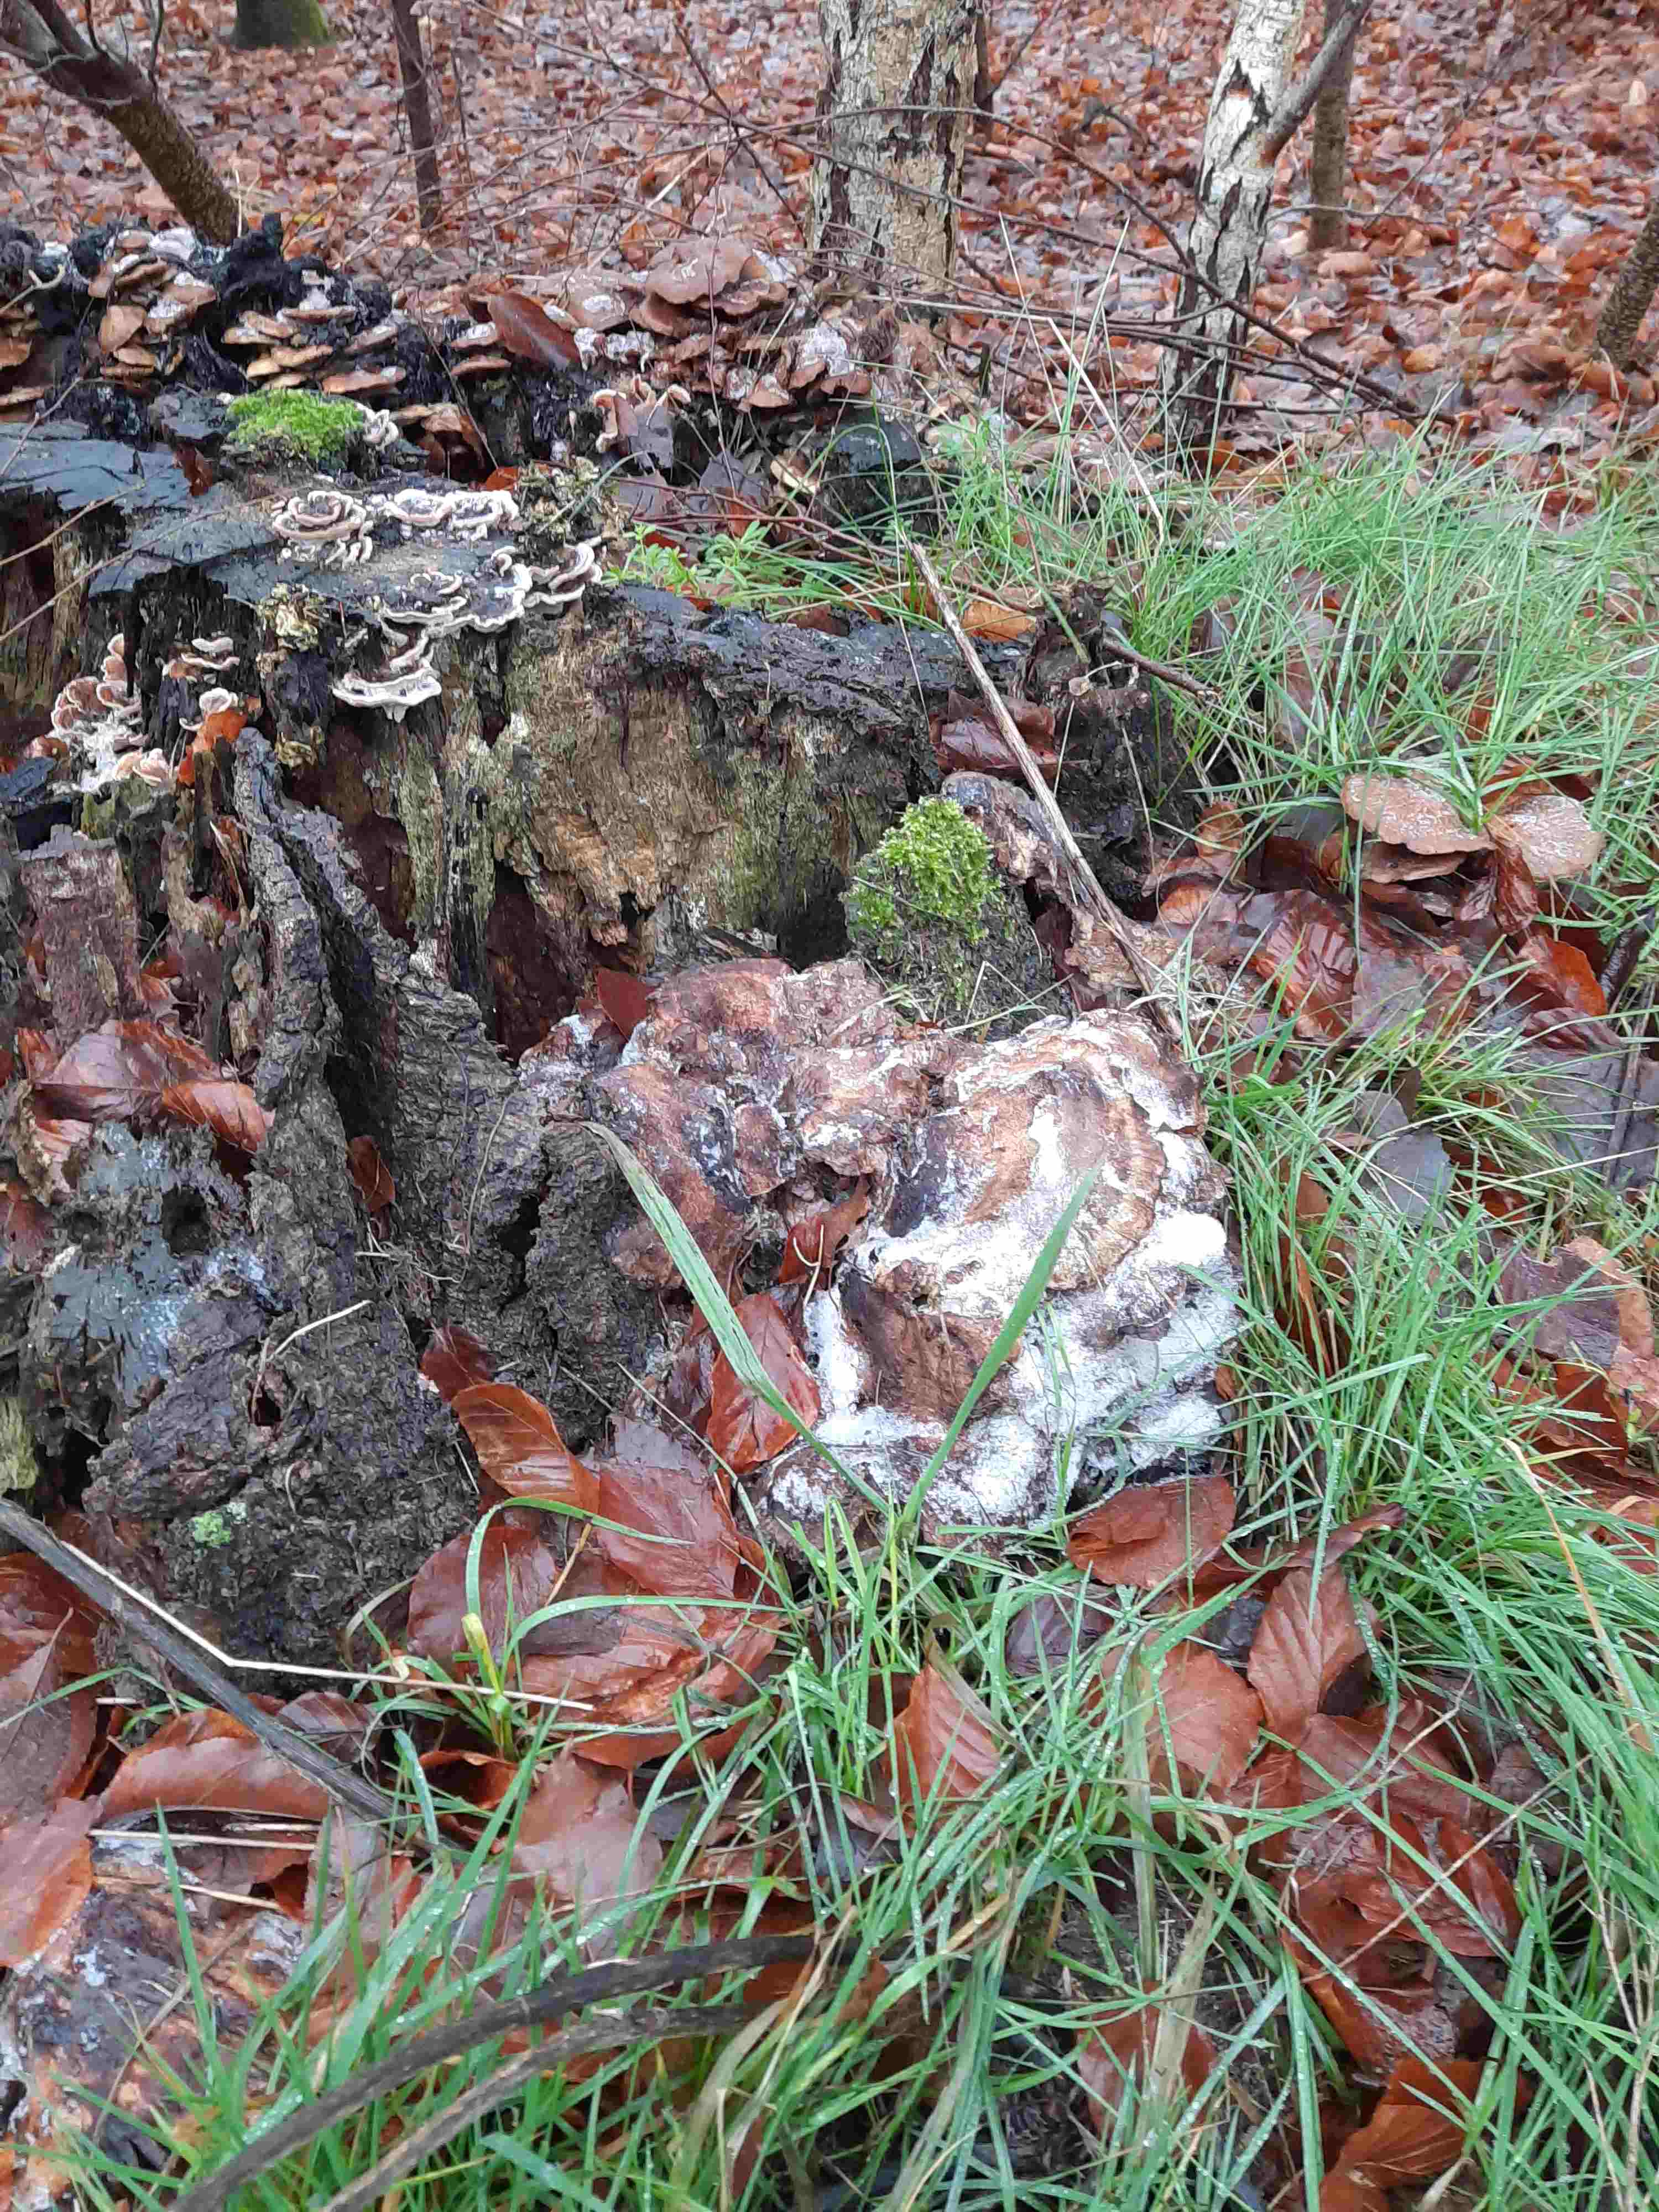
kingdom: Fungi
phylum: Basidiomycota
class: Agaricomycetes
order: Polyporales
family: Meripilaceae
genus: Meripilus
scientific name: Meripilus giganteus
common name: kæmpeporesvamp
